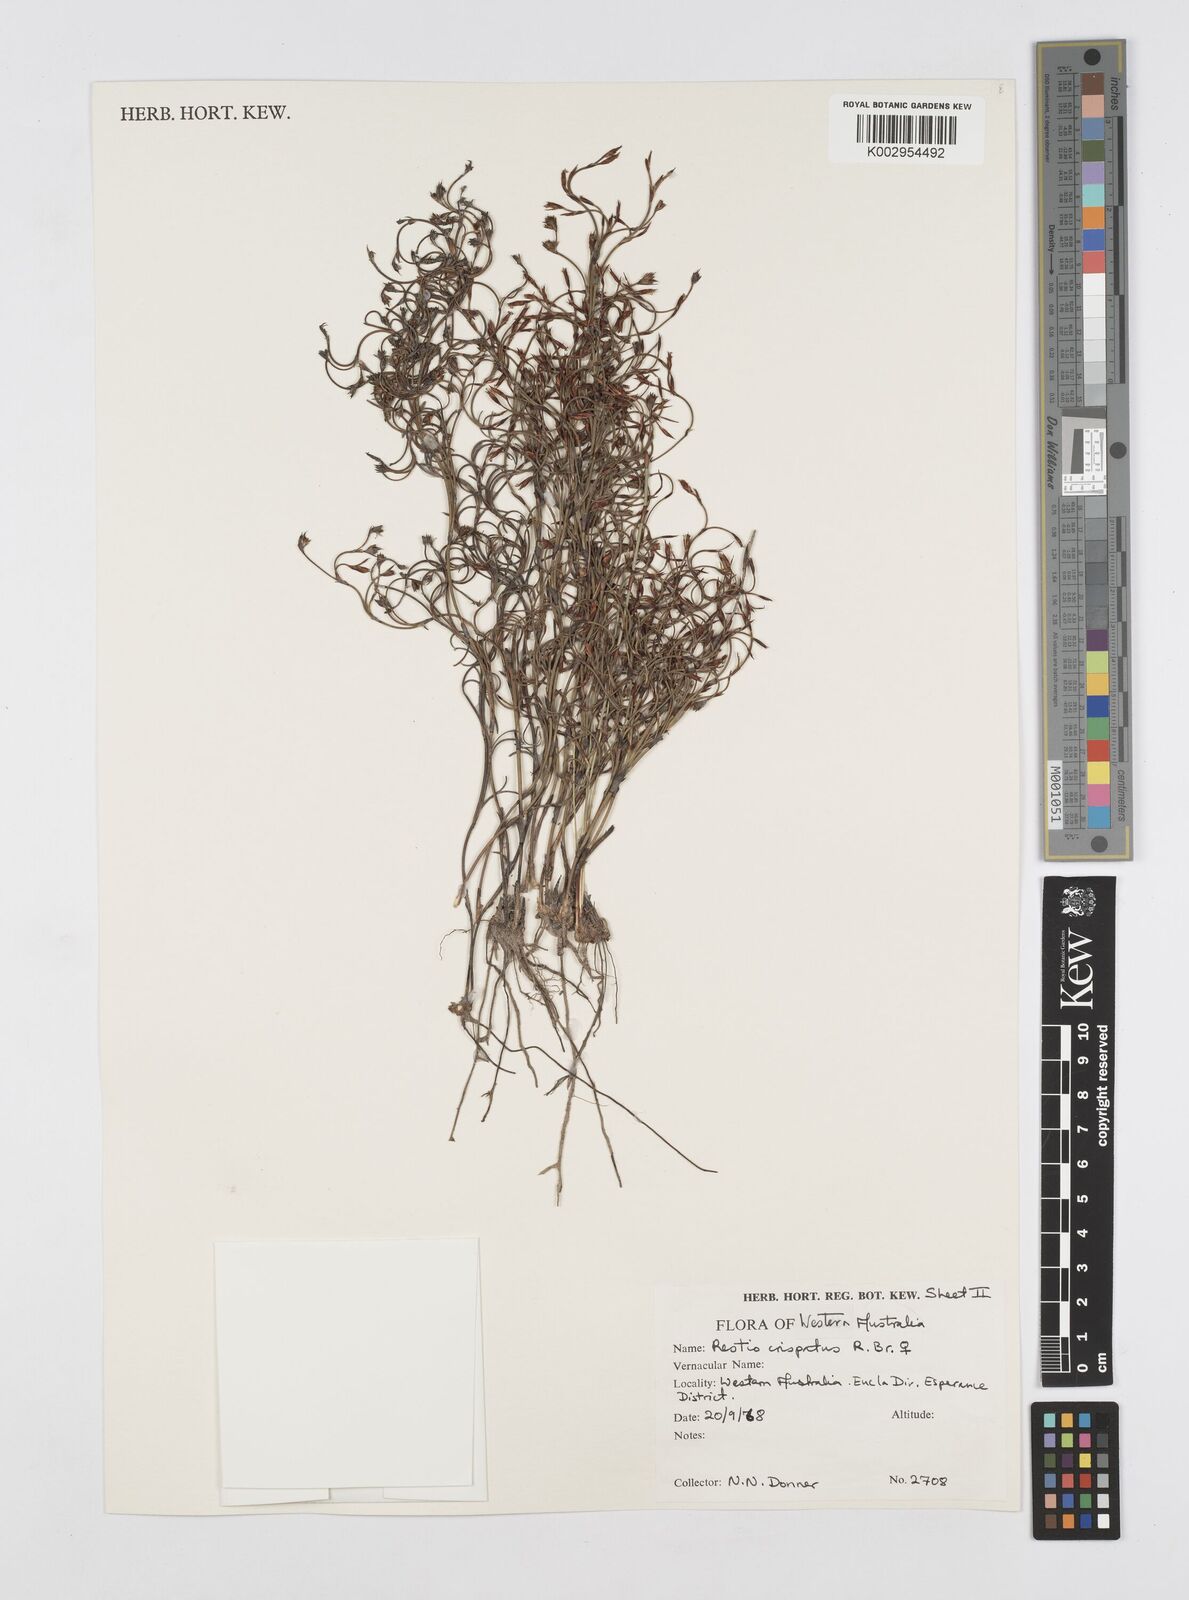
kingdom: Plantae
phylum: Tracheophyta
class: Liliopsida
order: Poales
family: Restionaceae
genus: Chordifex
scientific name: Chordifex crispatus
